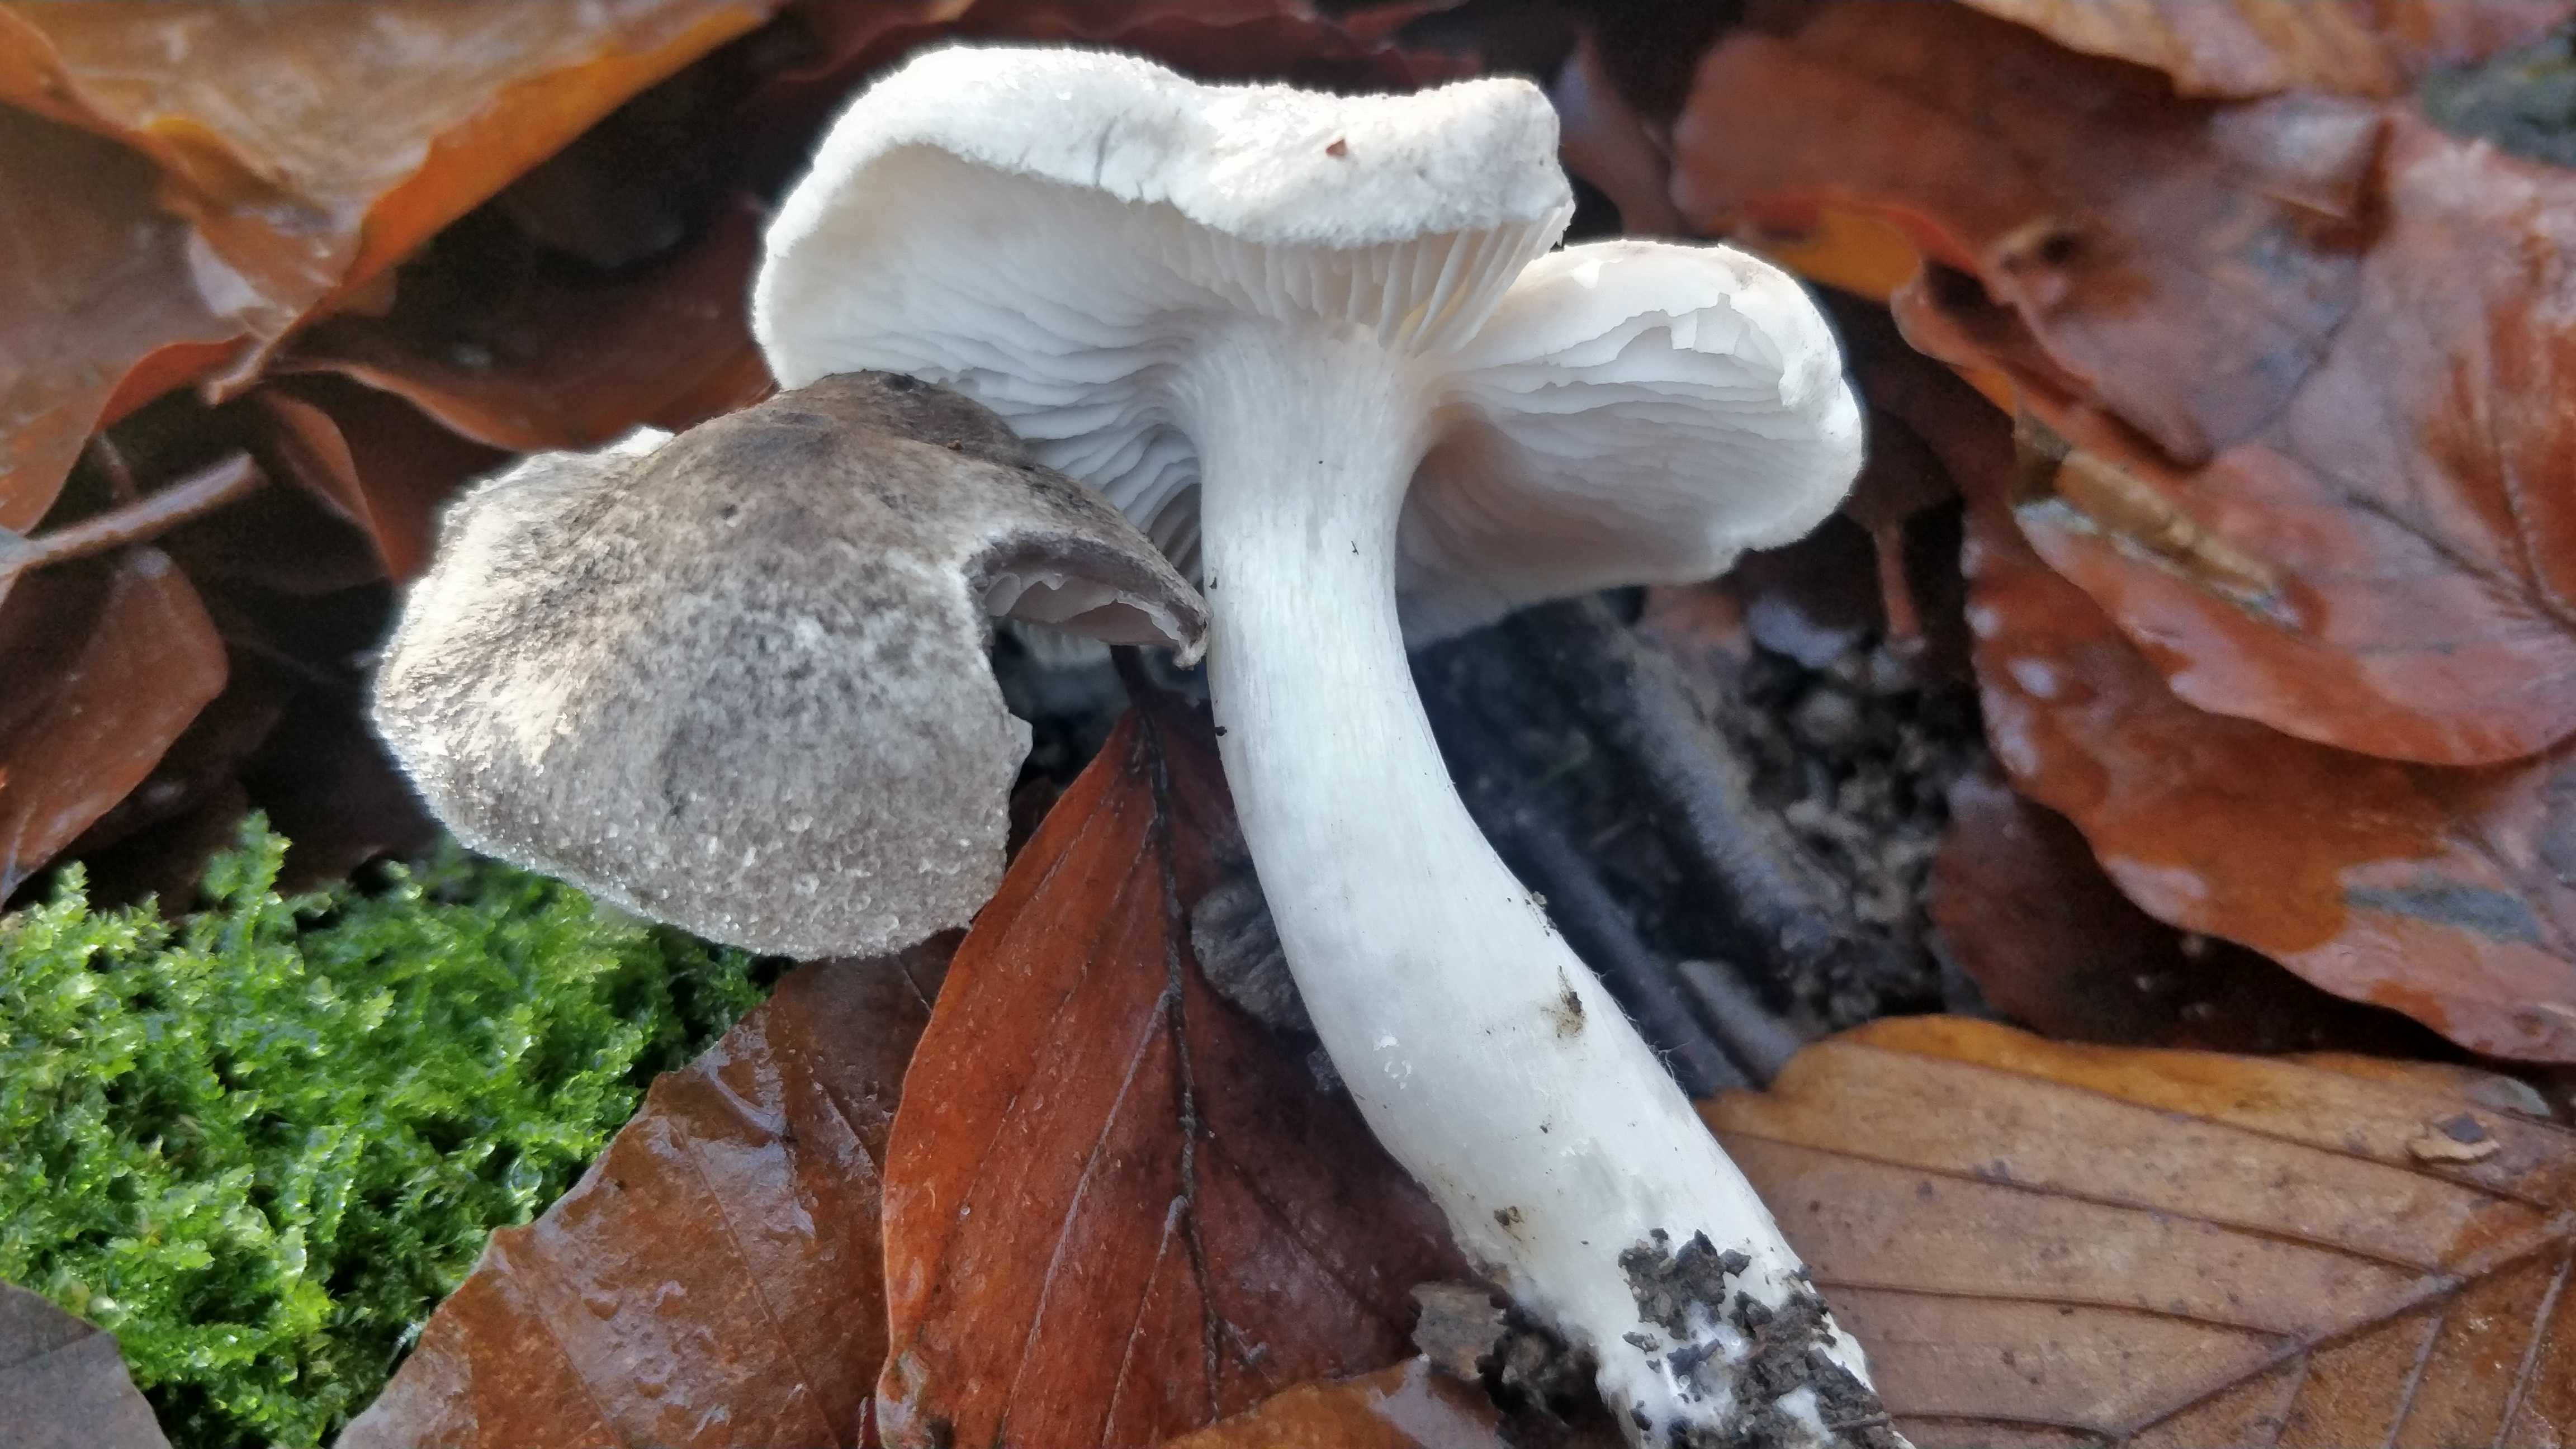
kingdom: Fungi
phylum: Basidiomycota
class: Agaricomycetes
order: Agaricales
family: Tricholomataceae
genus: Tricholoma
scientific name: Tricholoma scalpturatum
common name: gulplettet ridderhat
